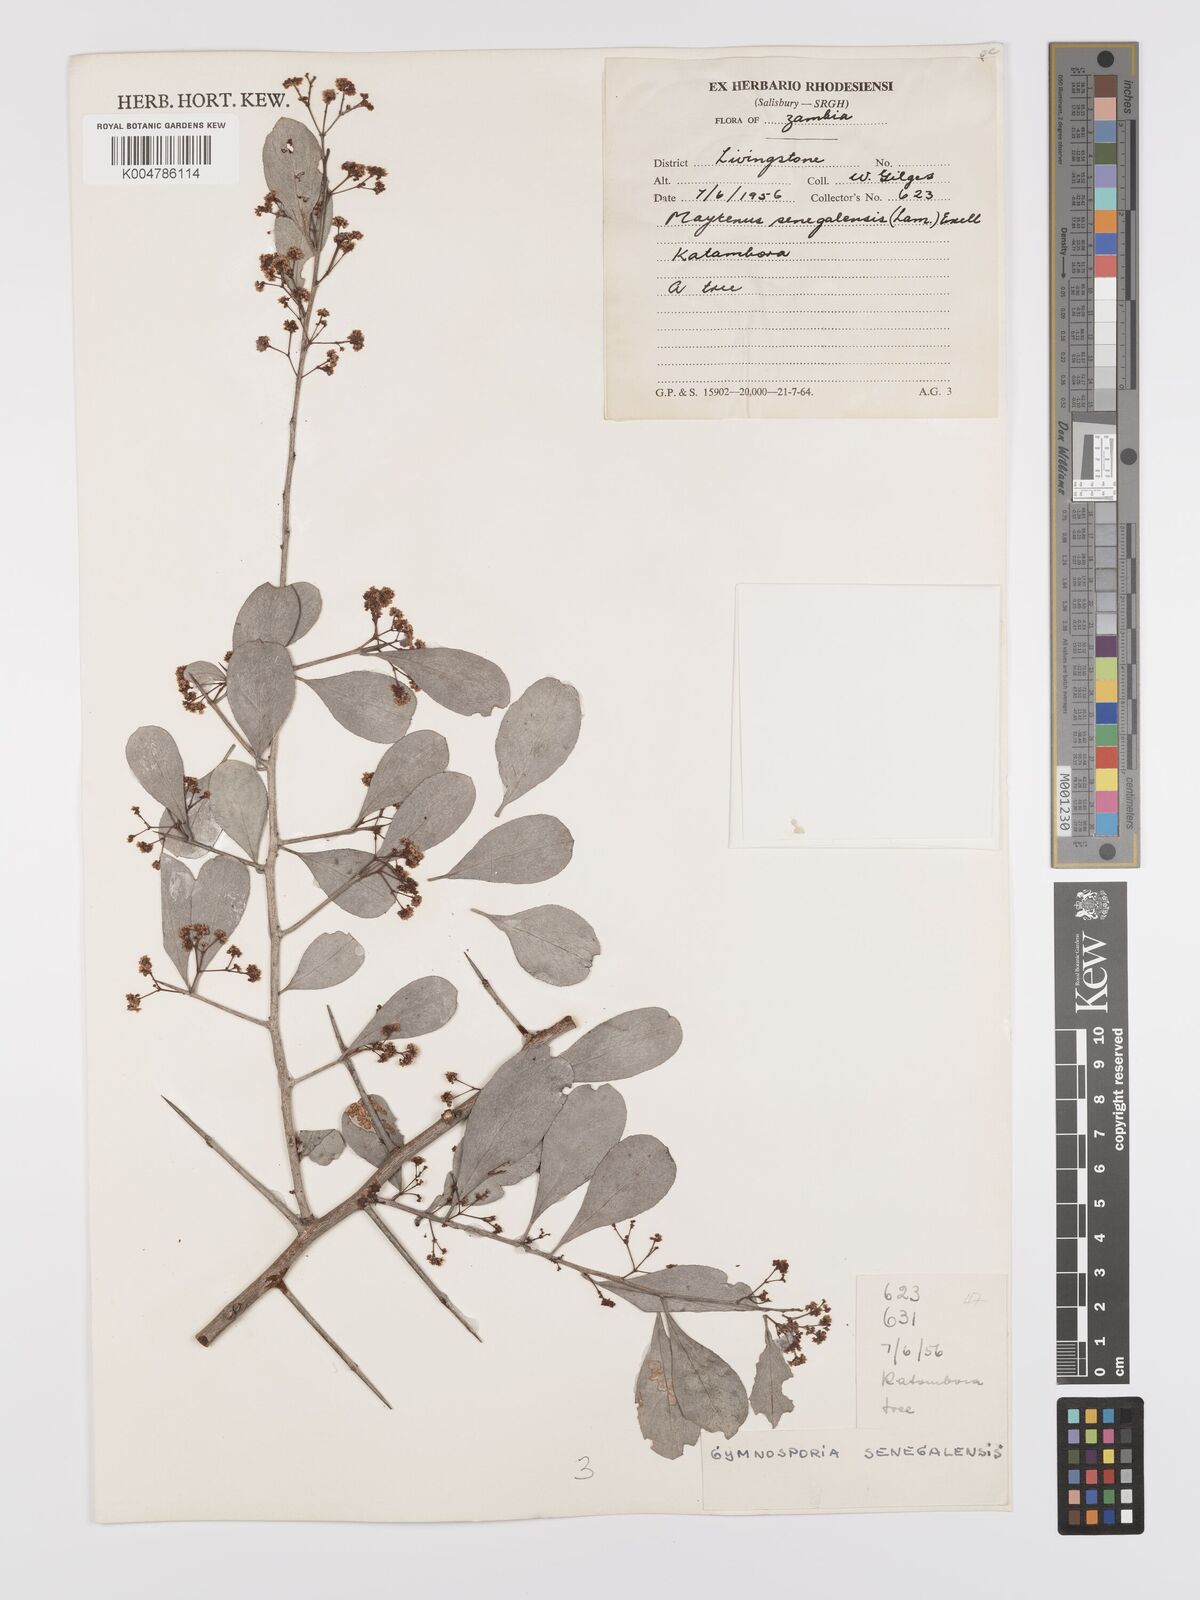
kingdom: Plantae
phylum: Tracheophyta
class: Magnoliopsida
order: Celastrales
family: Celastraceae
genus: Gymnosporia
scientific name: Gymnosporia senegalensis
